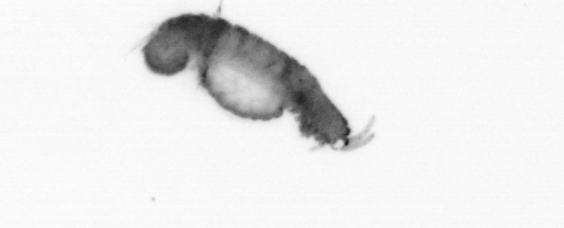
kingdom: Animalia
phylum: Annelida
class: Polychaeta
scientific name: Polychaeta
